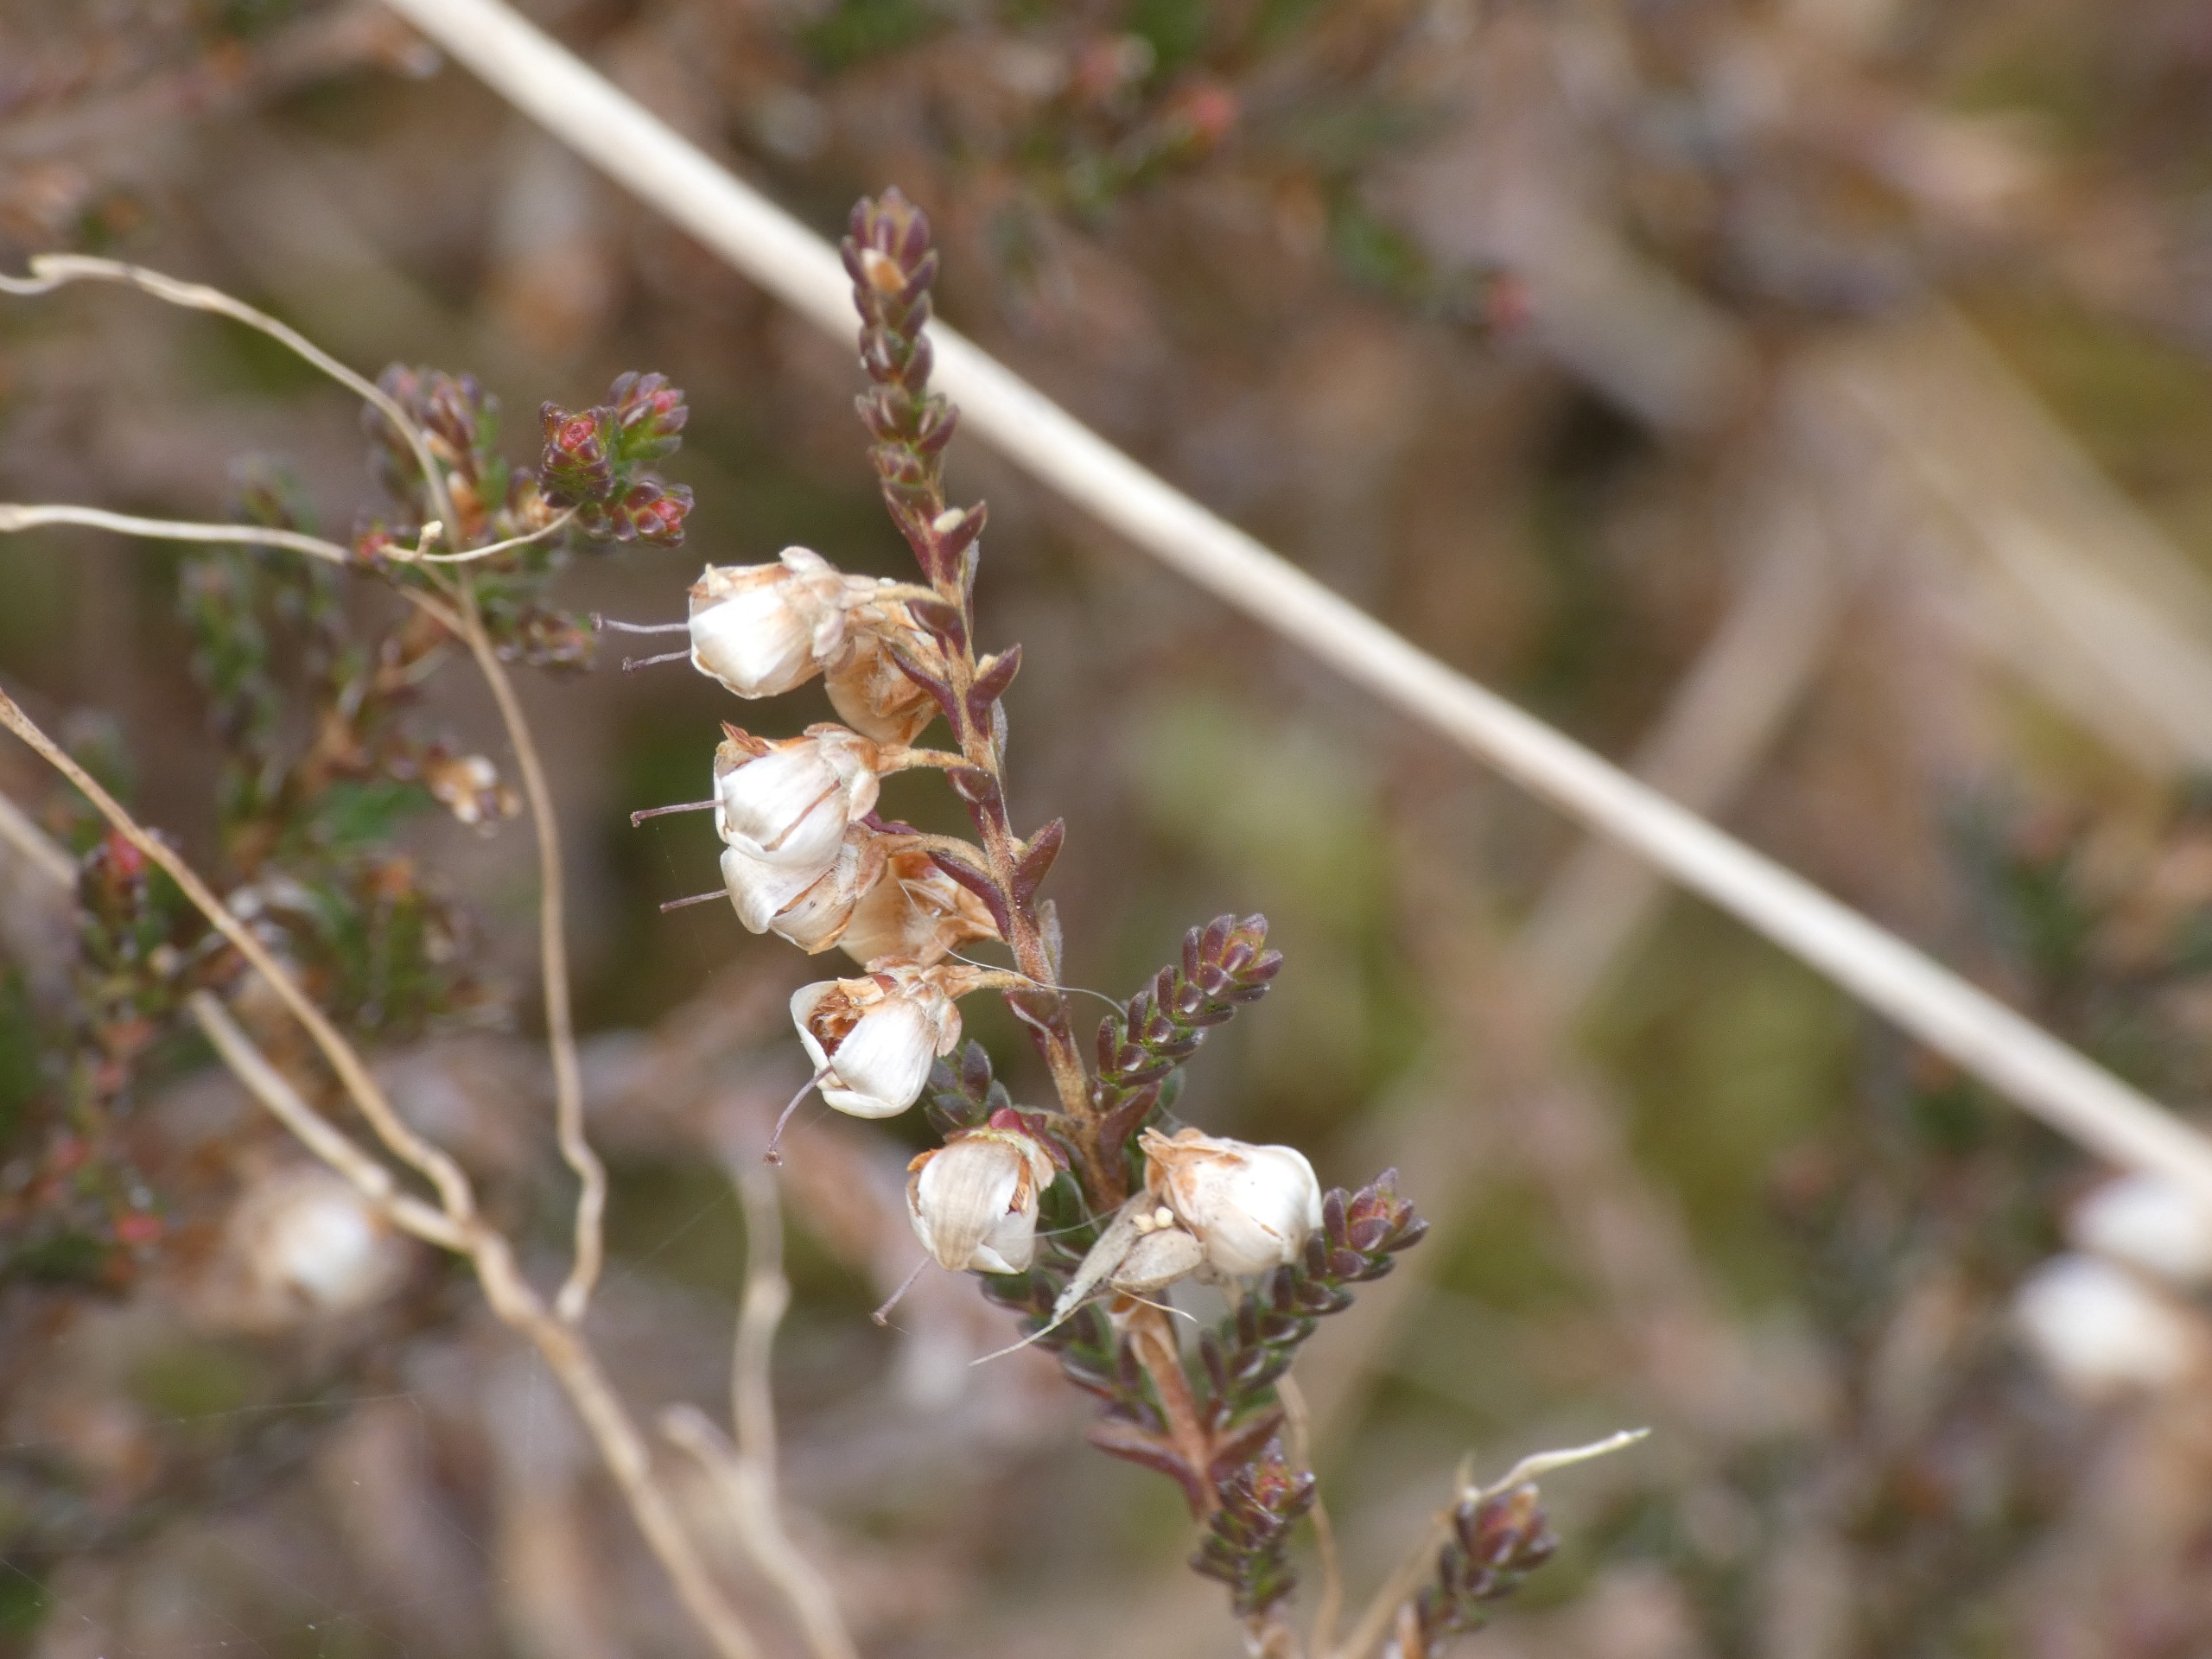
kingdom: Plantae
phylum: Tracheophyta
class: Magnoliopsida
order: Ericales
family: Ericaceae
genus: Calluna
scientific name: Calluna vulgaris
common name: Hedelyng
